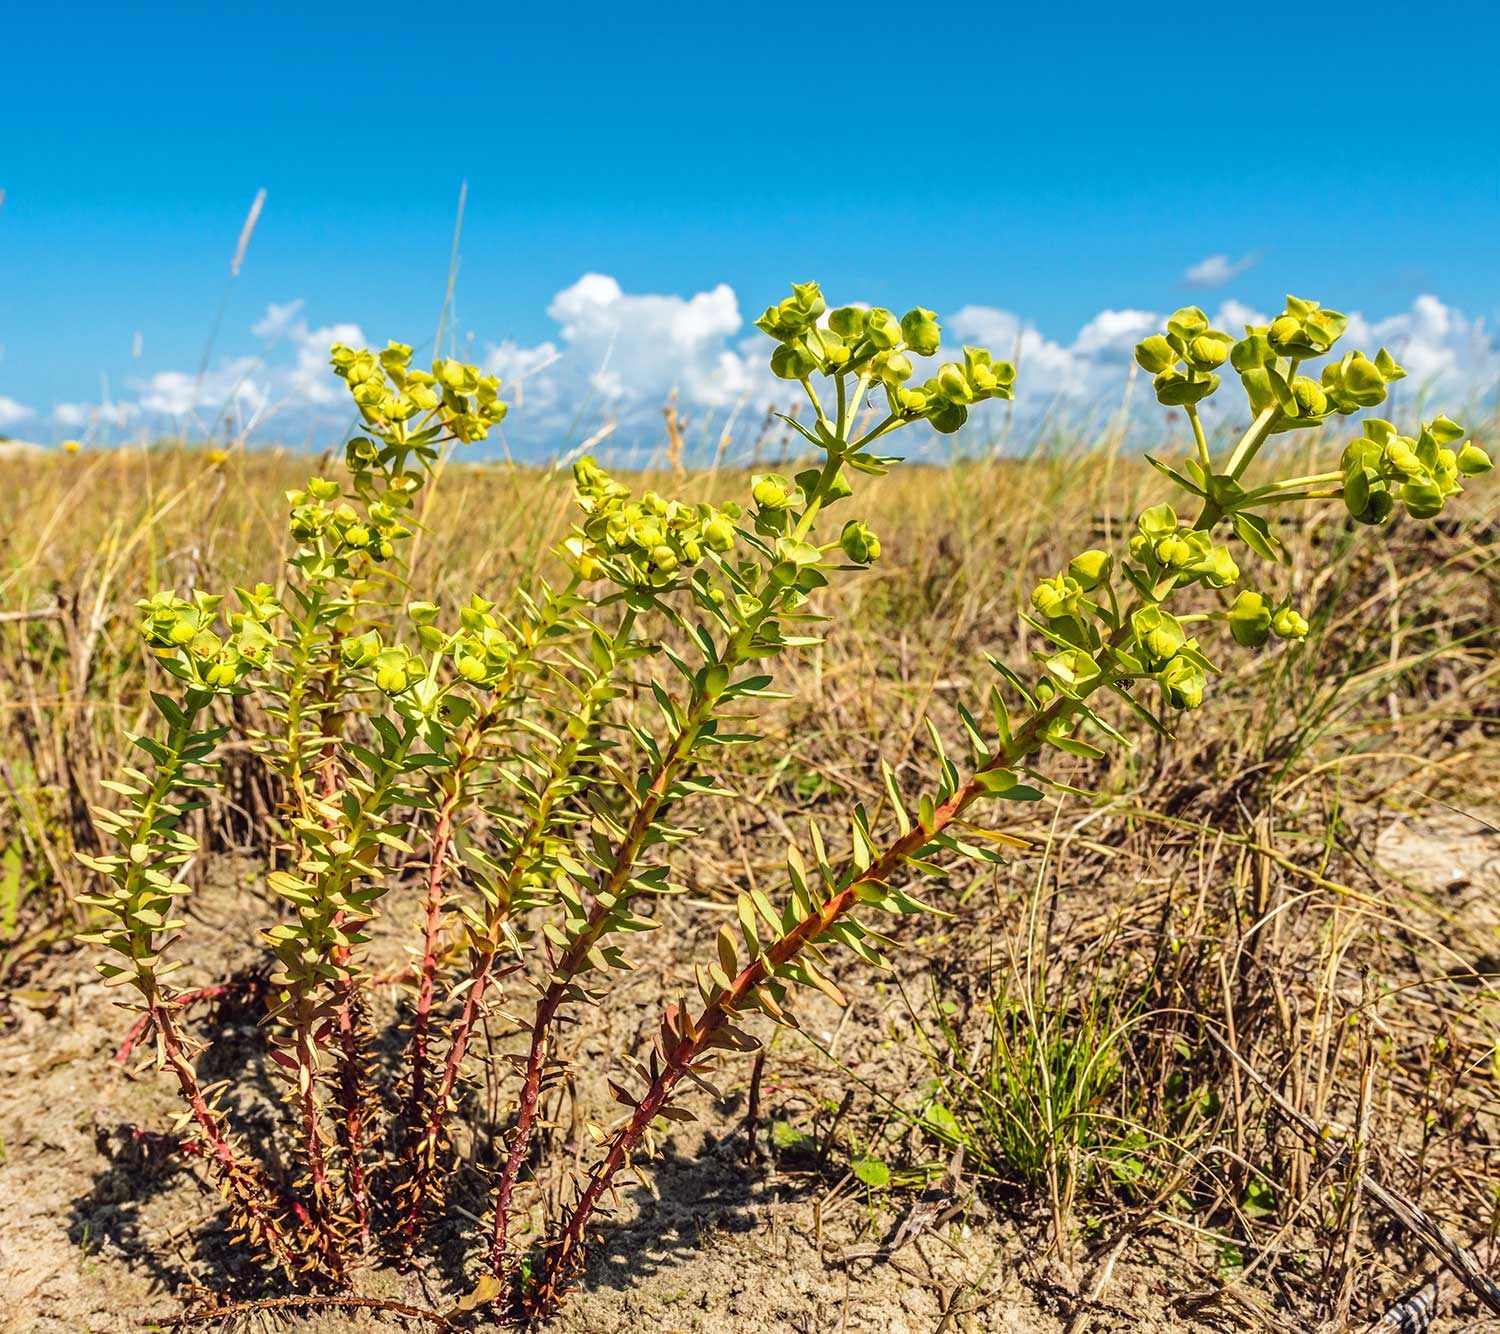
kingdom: Plantae
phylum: Tracheophyta
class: Magnoliopsida
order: Malpighiales
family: Euphorbiaceae
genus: Euphorbia
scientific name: Euphorbia paralias
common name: Kyst-vortemælk
